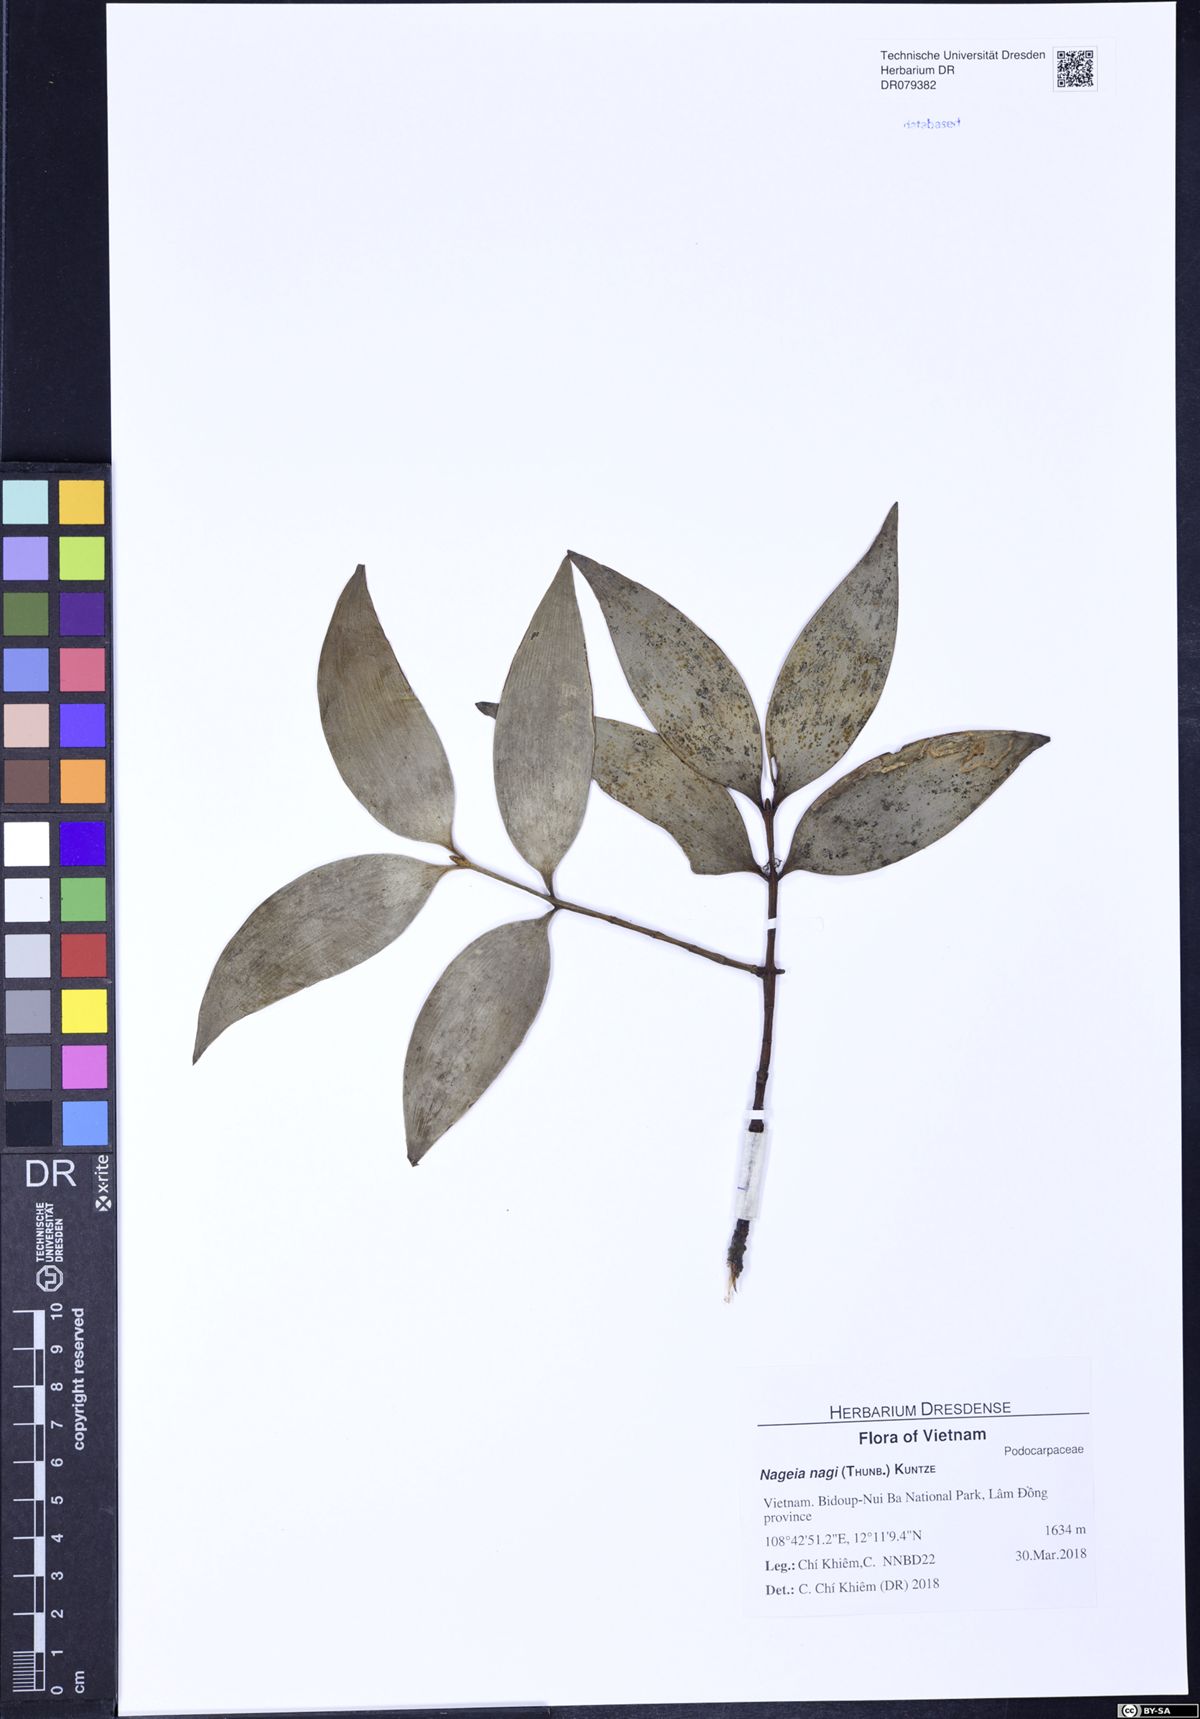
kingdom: Plantae
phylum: Tracheophyta
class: Pinopsida
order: Pinales
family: Podocarpaceae
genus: Nageia
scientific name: Nageia nagi
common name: Kaphal
